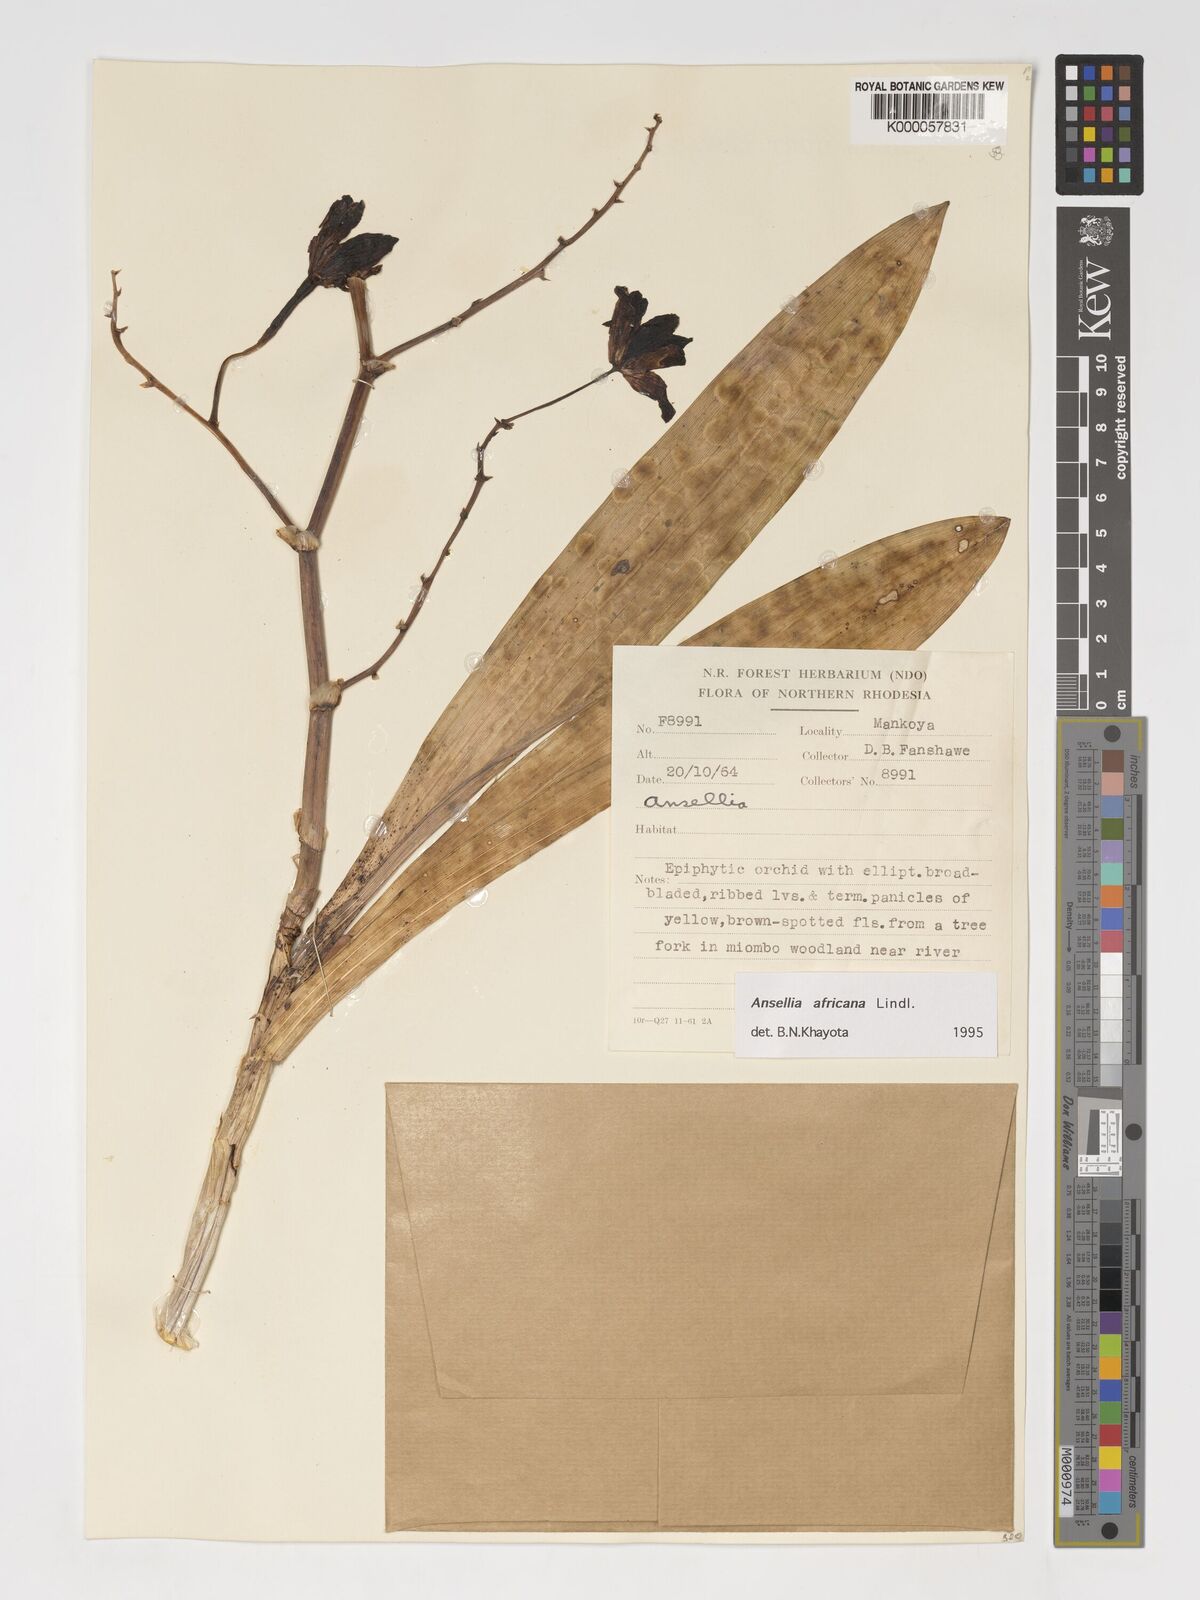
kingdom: Plantae
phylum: Tracheophyta
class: Liliopsida
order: Asparagales
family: Orchidaceae
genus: Ansellia
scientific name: Ansellia africana
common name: African ansellia
